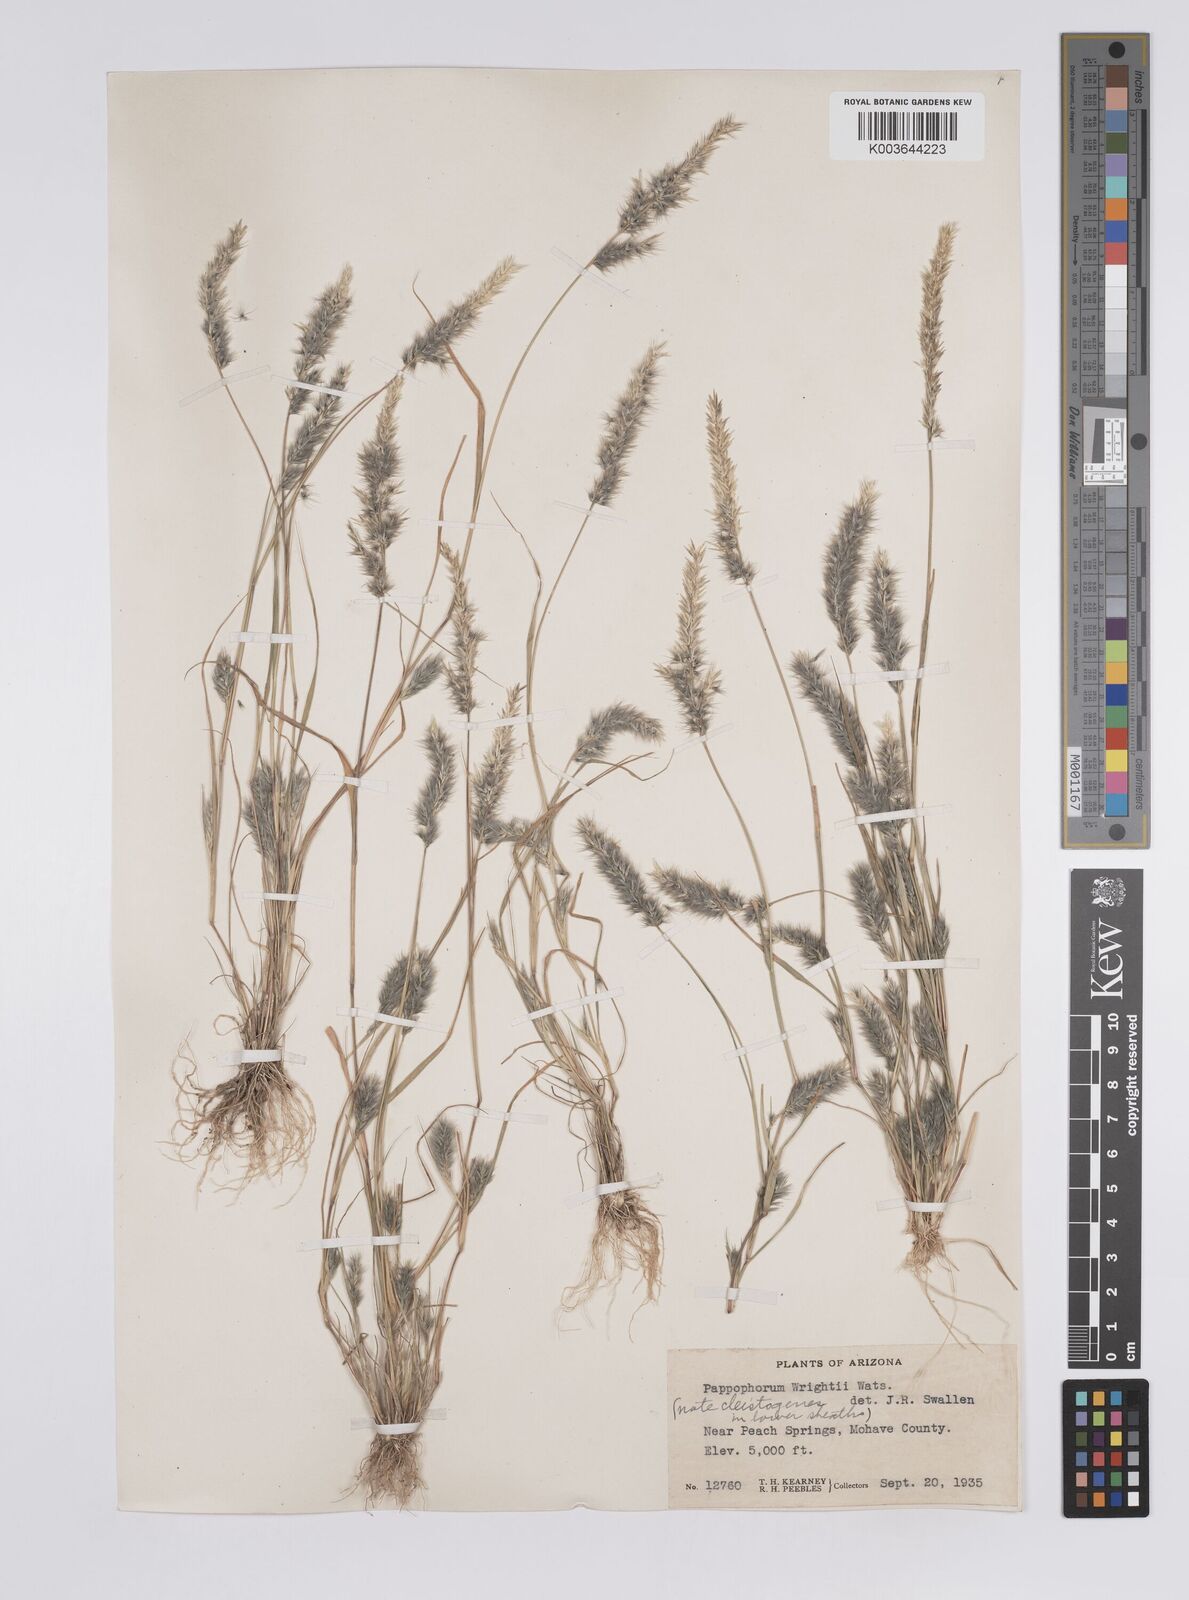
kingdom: Plantae
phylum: Tracheophyta
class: Liliopsida
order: Poales
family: Poaceae
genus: Enneapogon
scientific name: Enneapogon desvauxii
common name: Feather pappus grass
